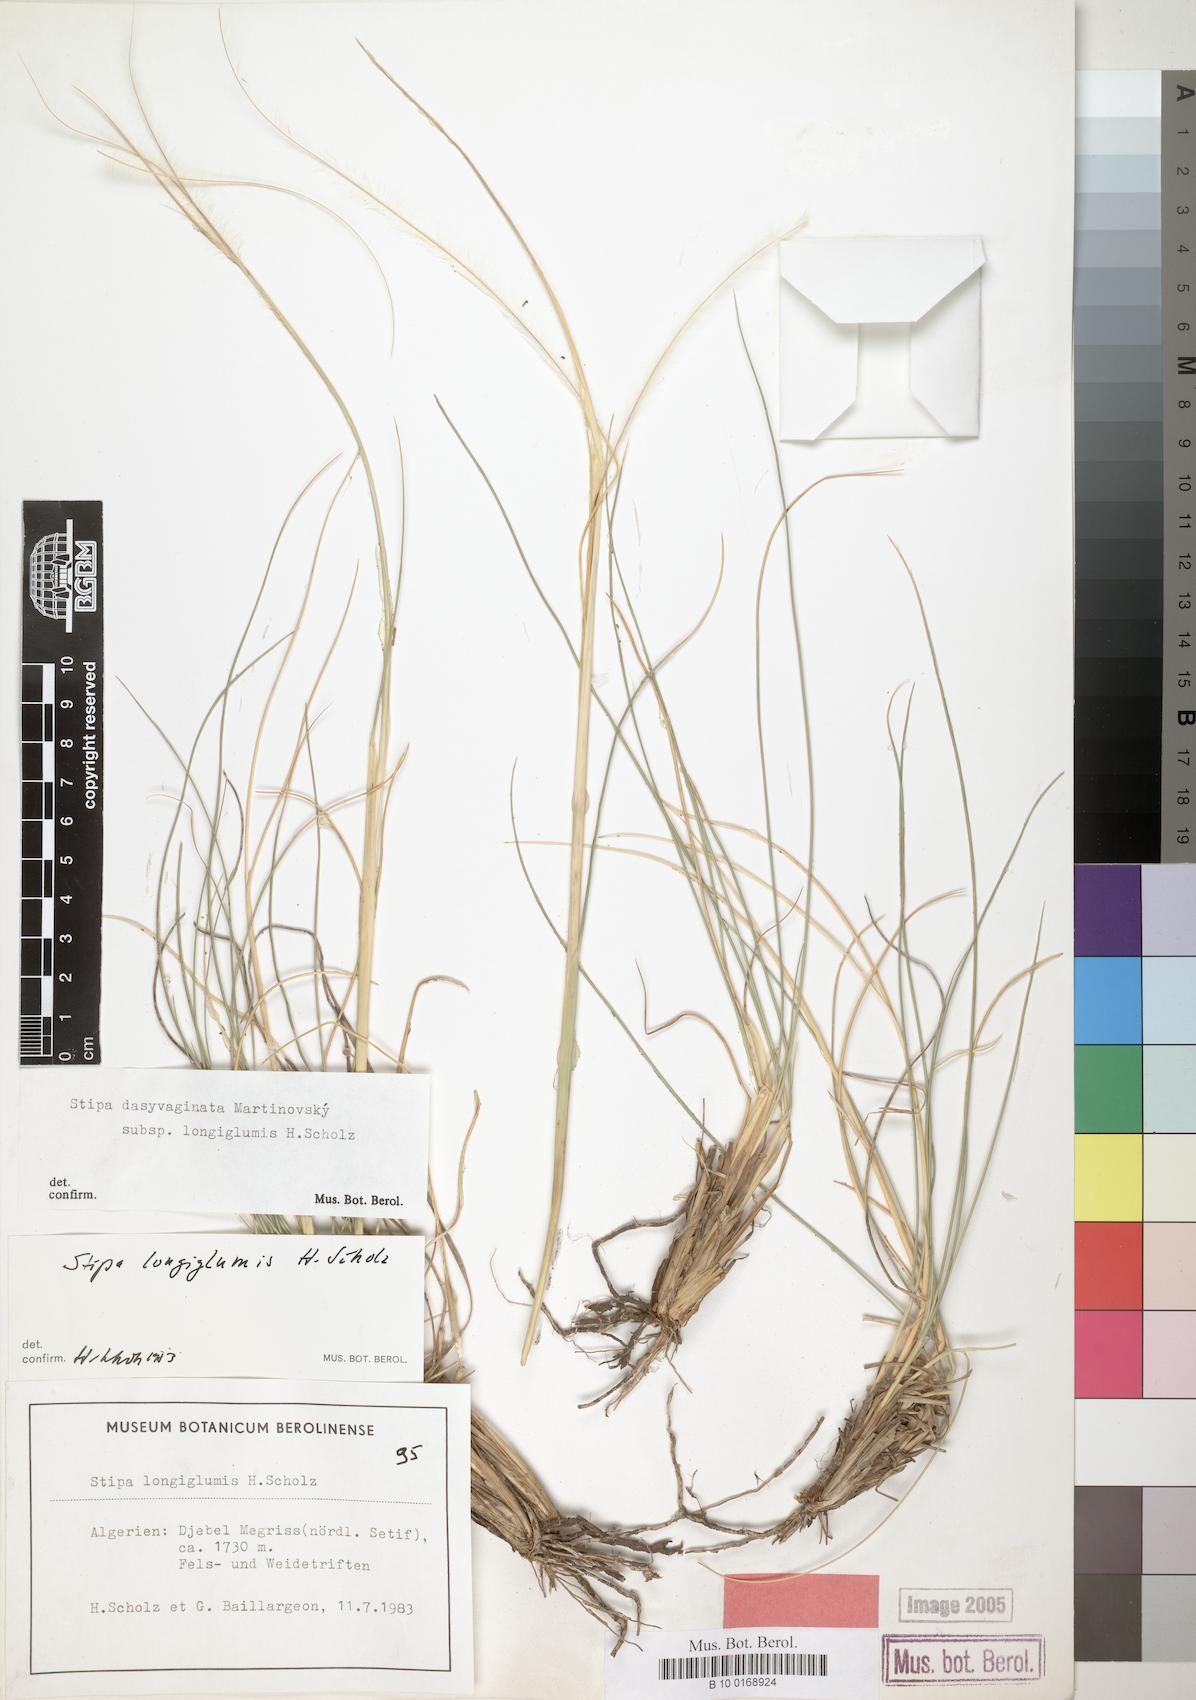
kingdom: Plantae
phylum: Tracheophyta
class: Liliopsida
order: Poales
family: Poaceae
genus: Stipa
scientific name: Stipa apertifolia
